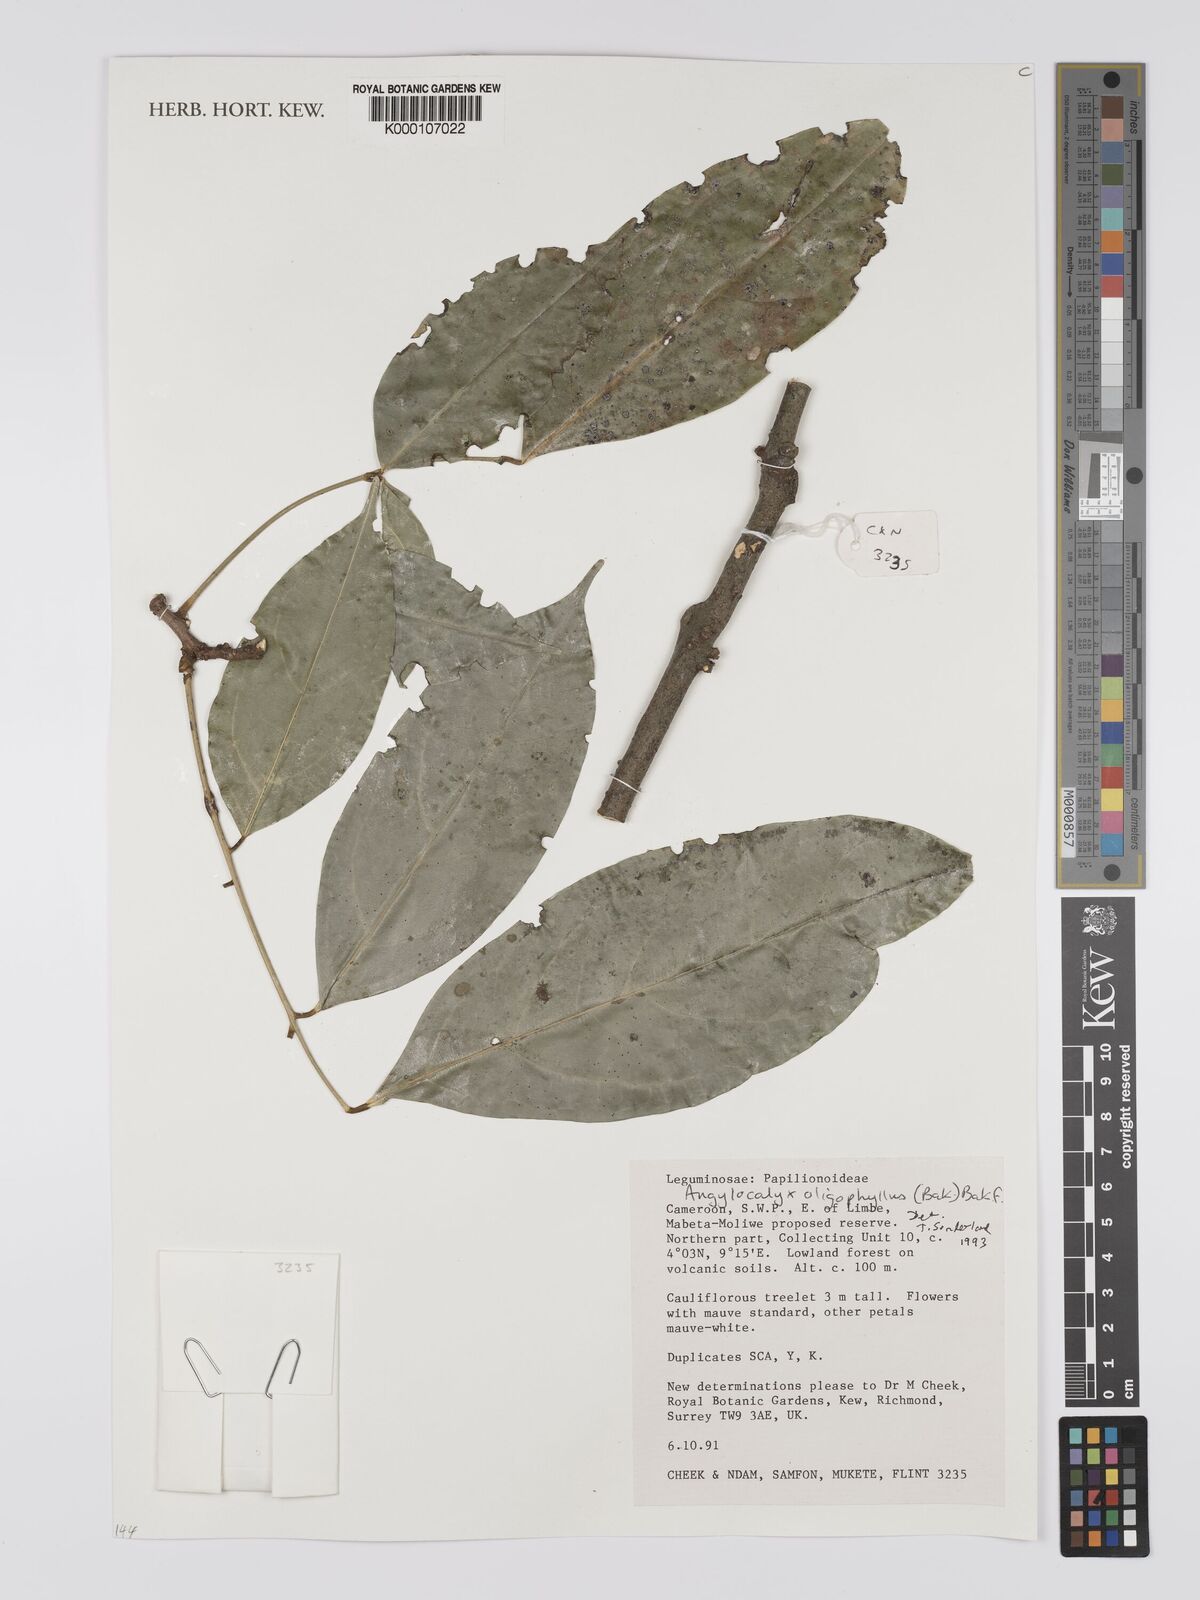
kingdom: Plantae
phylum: Tracheophyta
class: Liliopsida
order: Asparagales
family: Orchidaceae
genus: Polystachya
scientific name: Polystachya supfiana
